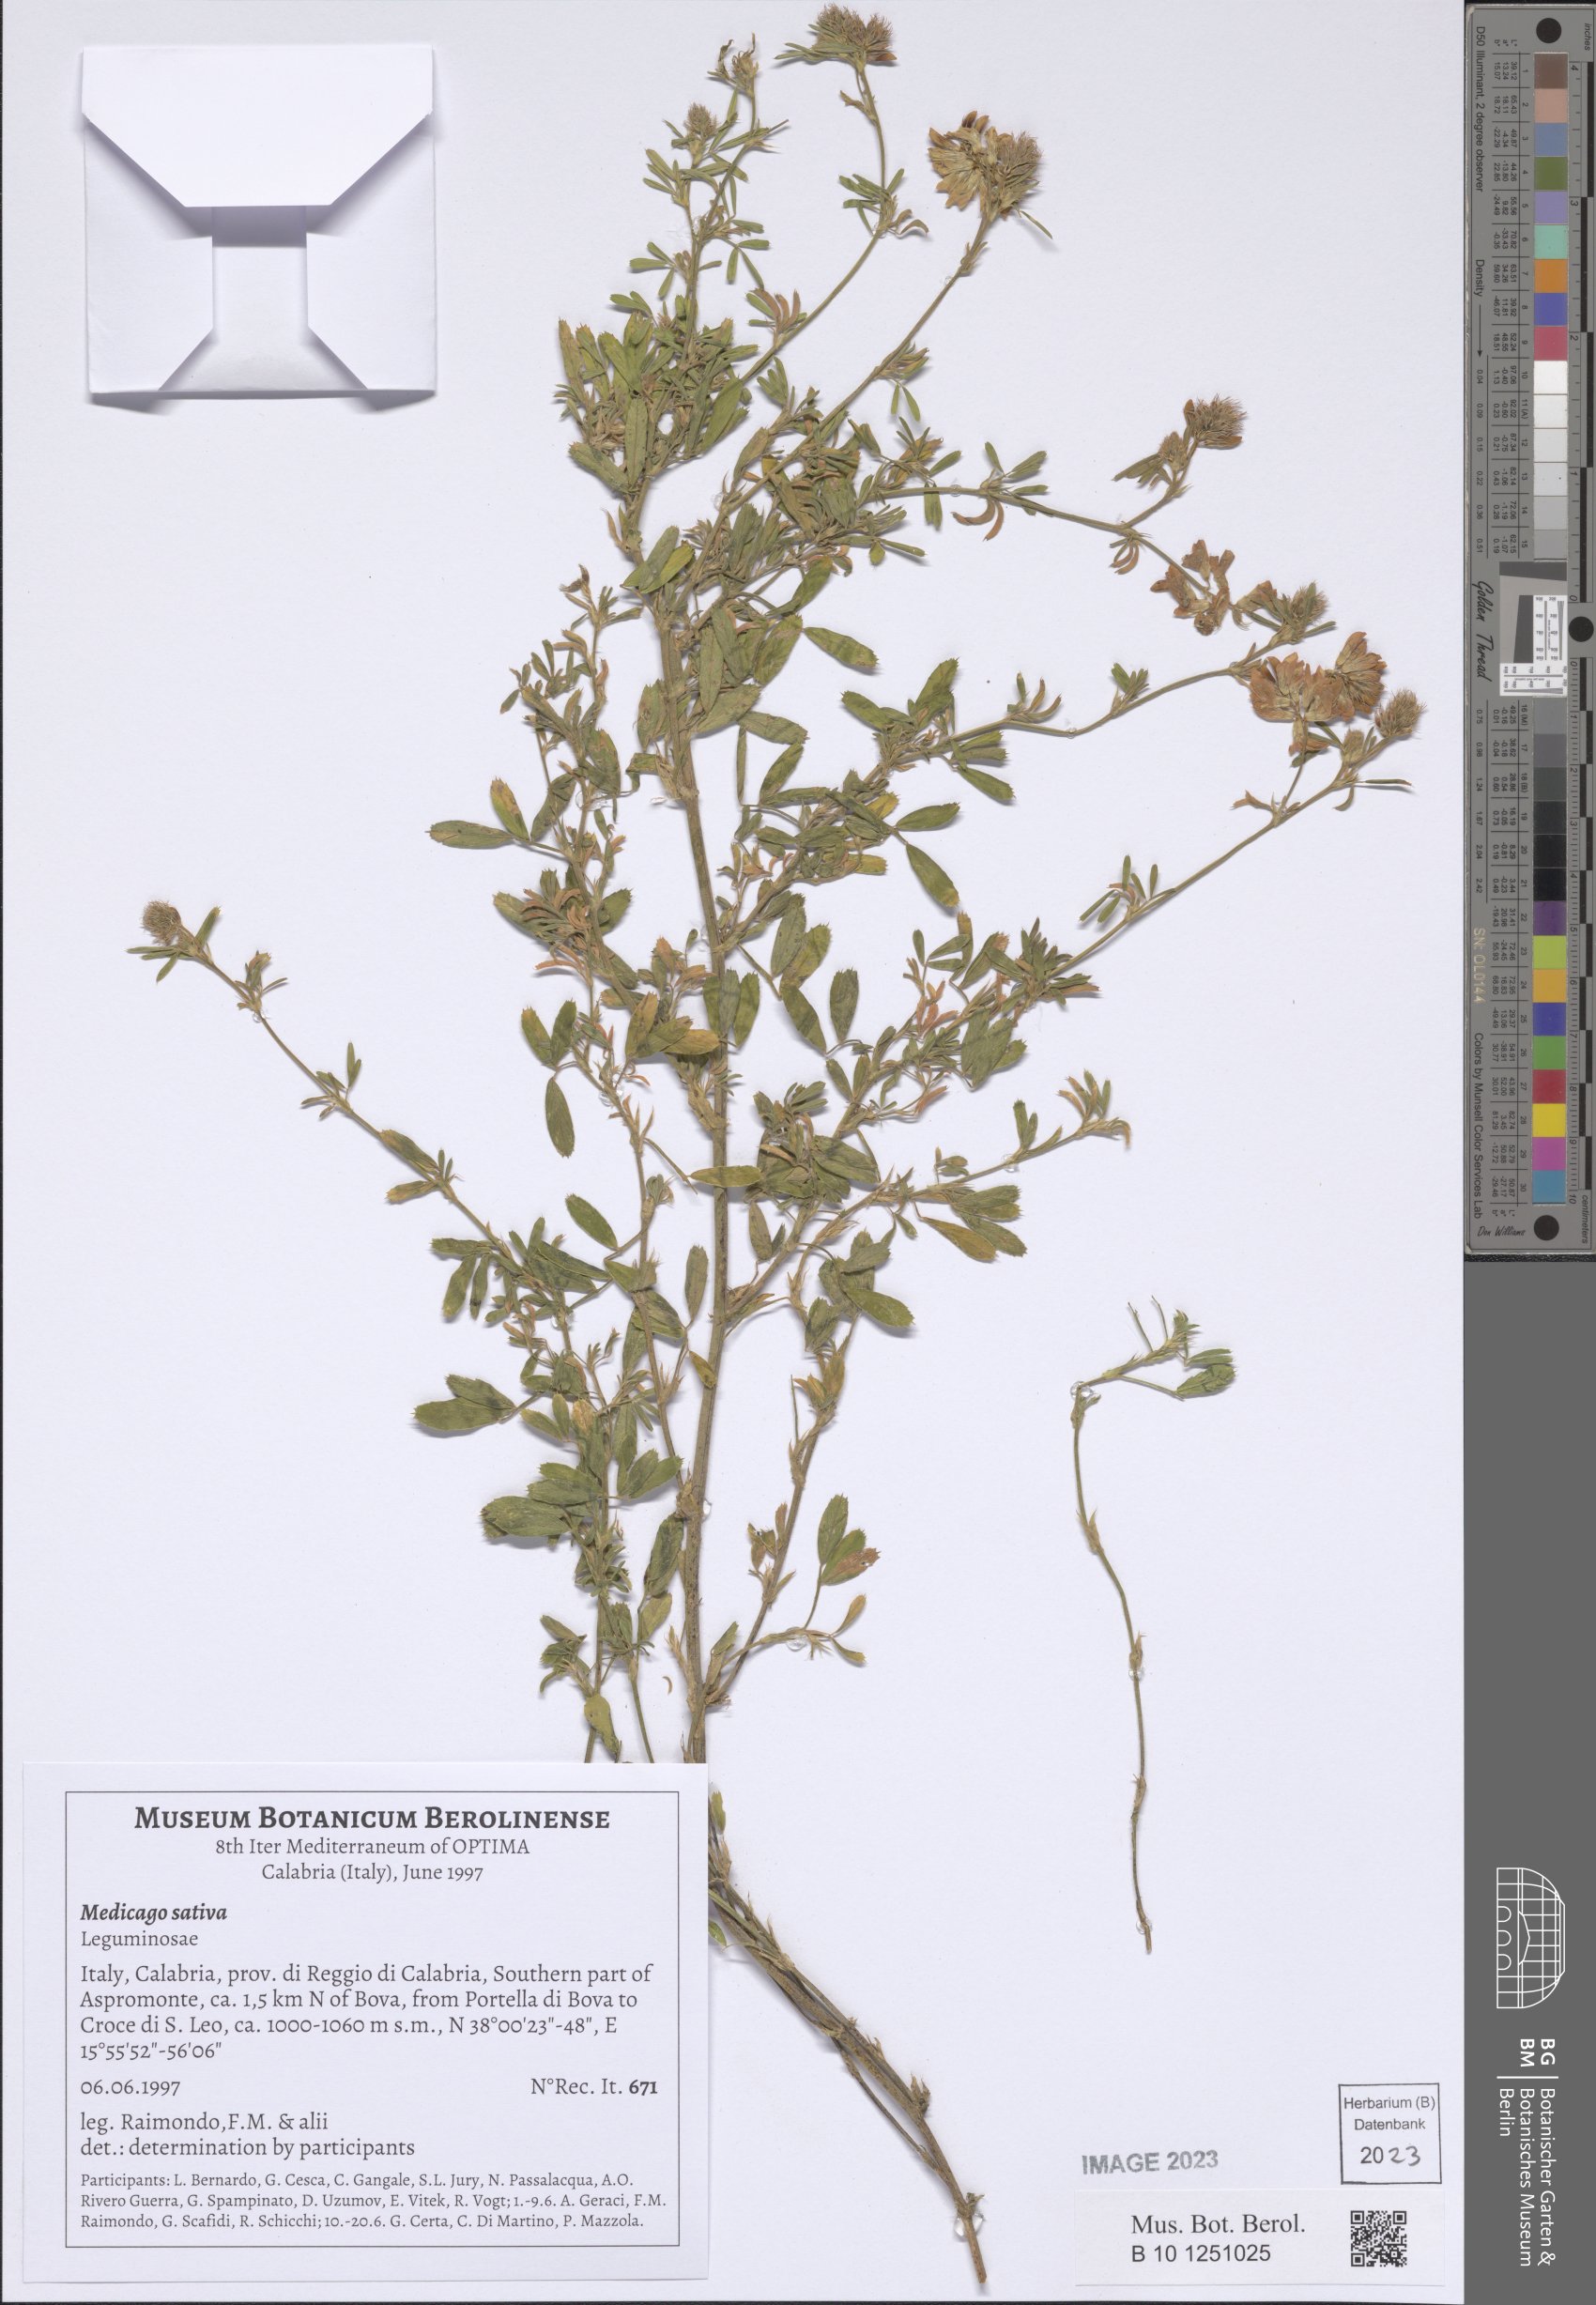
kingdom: Plantae
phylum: Tracheophyta
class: Magnoliopsida
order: Fabales
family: Fabaceae
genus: Medicago
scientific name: Medicago sativa
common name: Alfalfa
